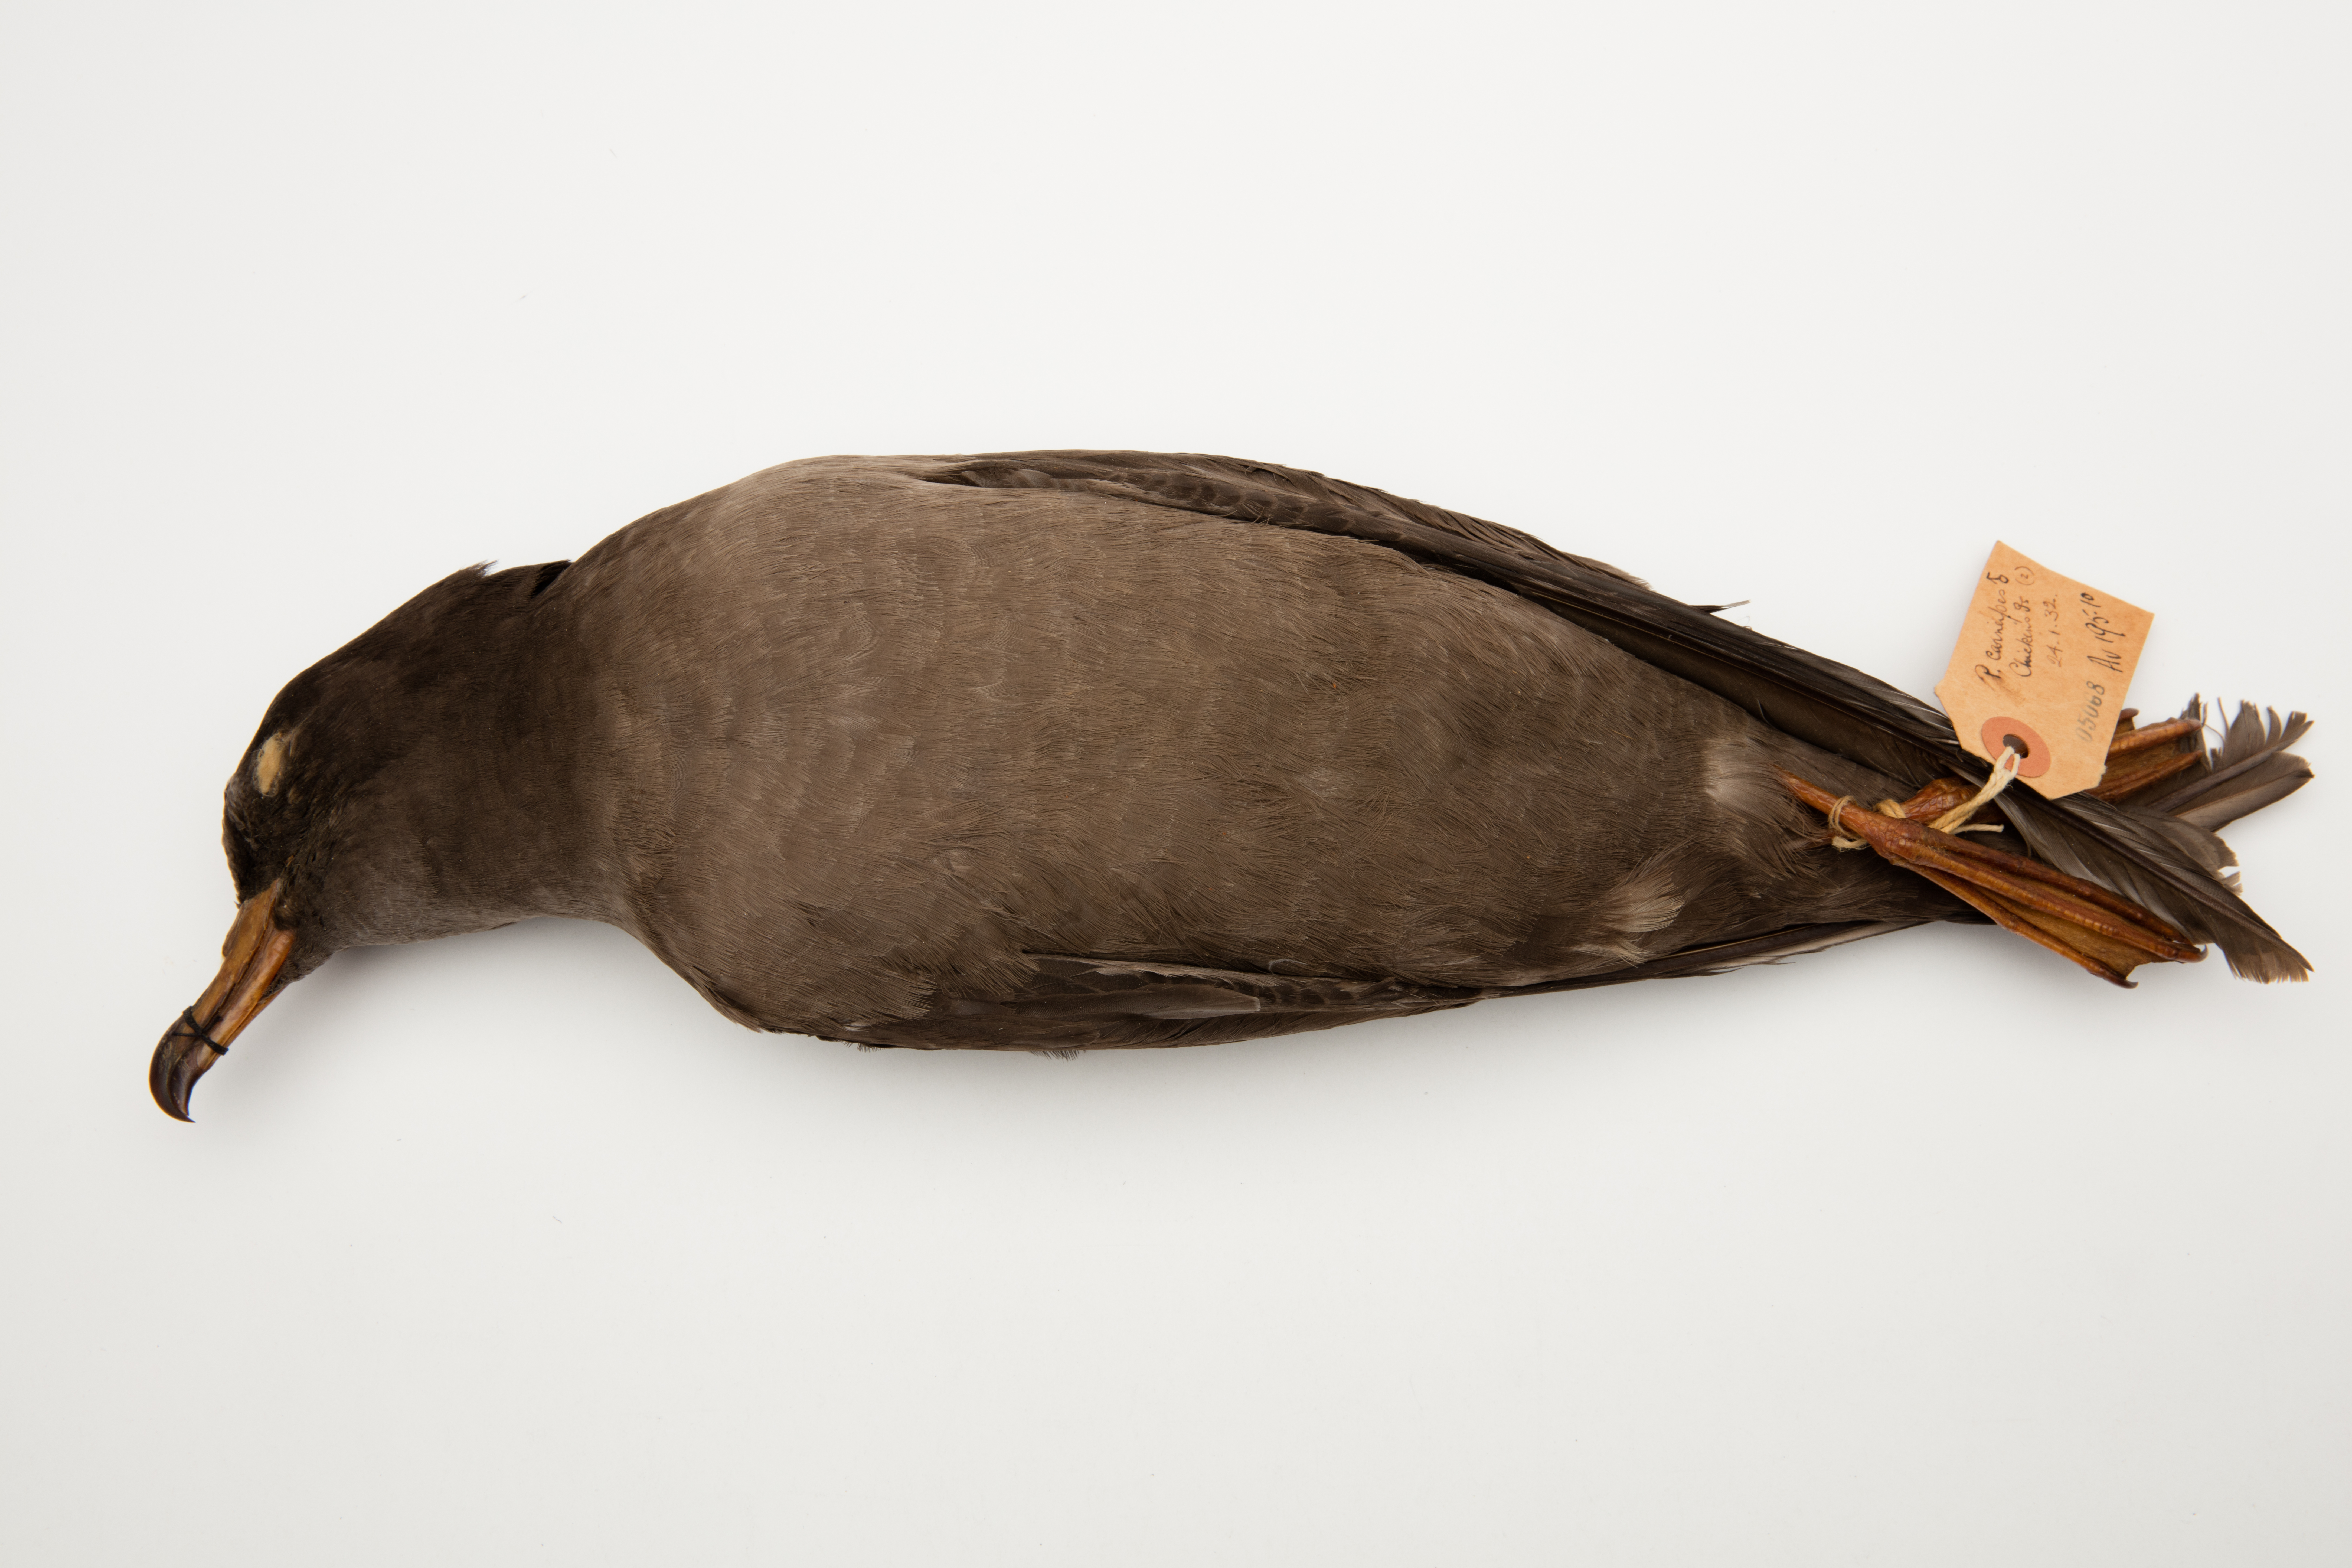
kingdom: Animalia
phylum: Chordata
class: Aves
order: Procellariiformes
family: Procellariidae
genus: Puffinus
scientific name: Puffinus carneipes
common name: Flesh-footed shearwater
